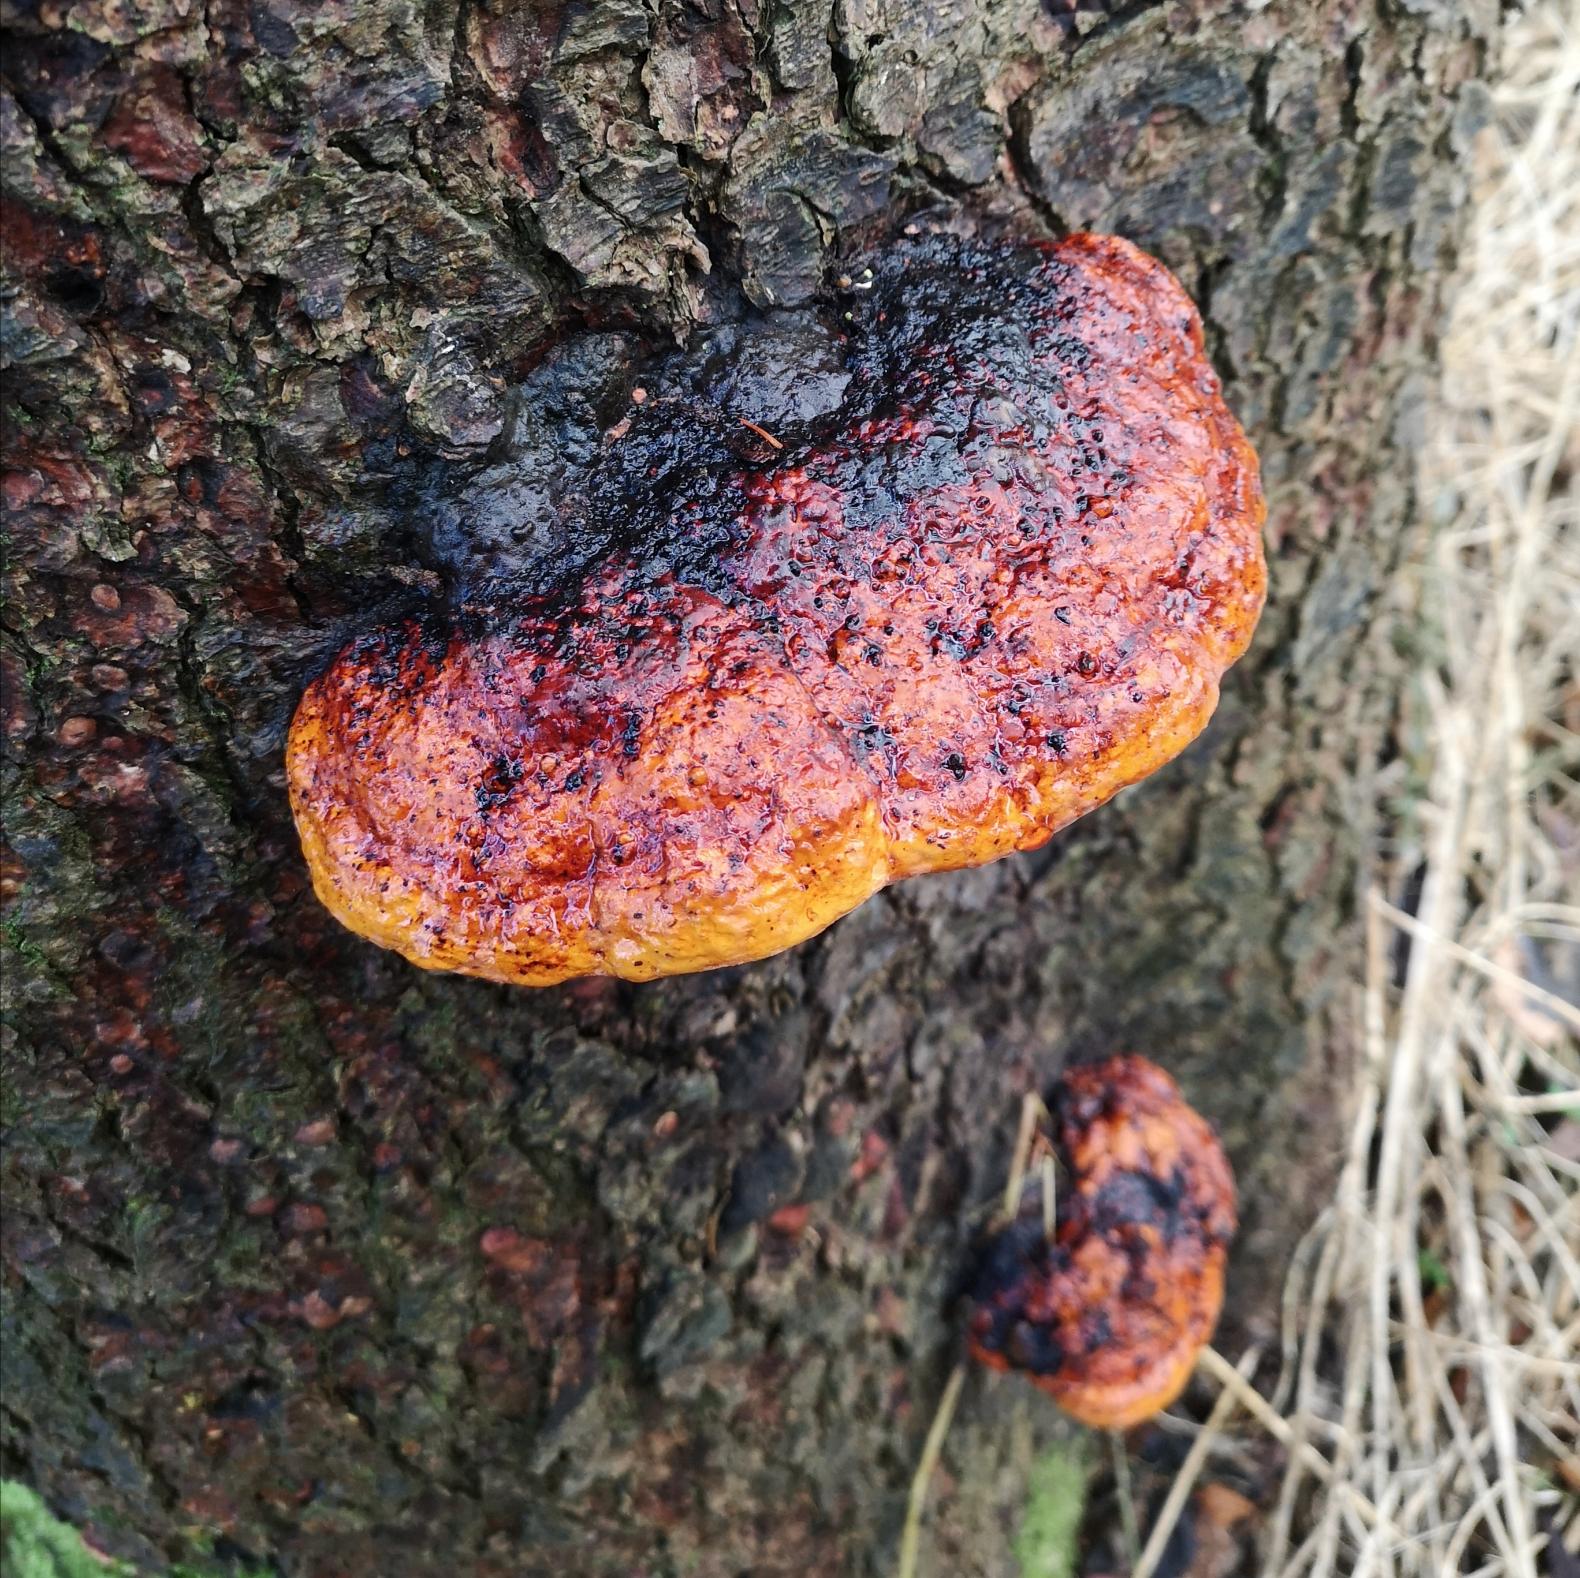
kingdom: Fungi
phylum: Basidiomycota
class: Agaricomycetes
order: Polyporales
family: Fomitopsidaceae
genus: Fomitopsis
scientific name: Fomitopsis pinicola
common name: Randbæltet hovporesvamp
